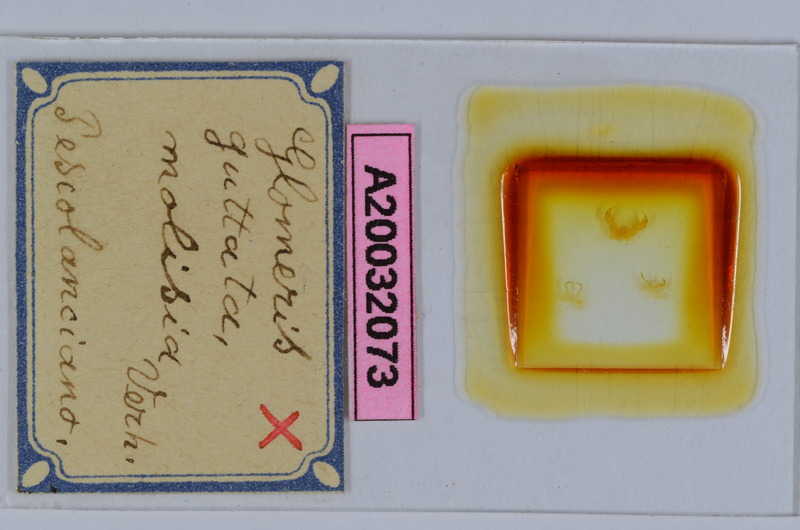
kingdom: Animalia
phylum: Arthropoda
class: Diplopoda
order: Glomerida
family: Glomeridae
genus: Glomeris
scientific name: Glomeris connexa
